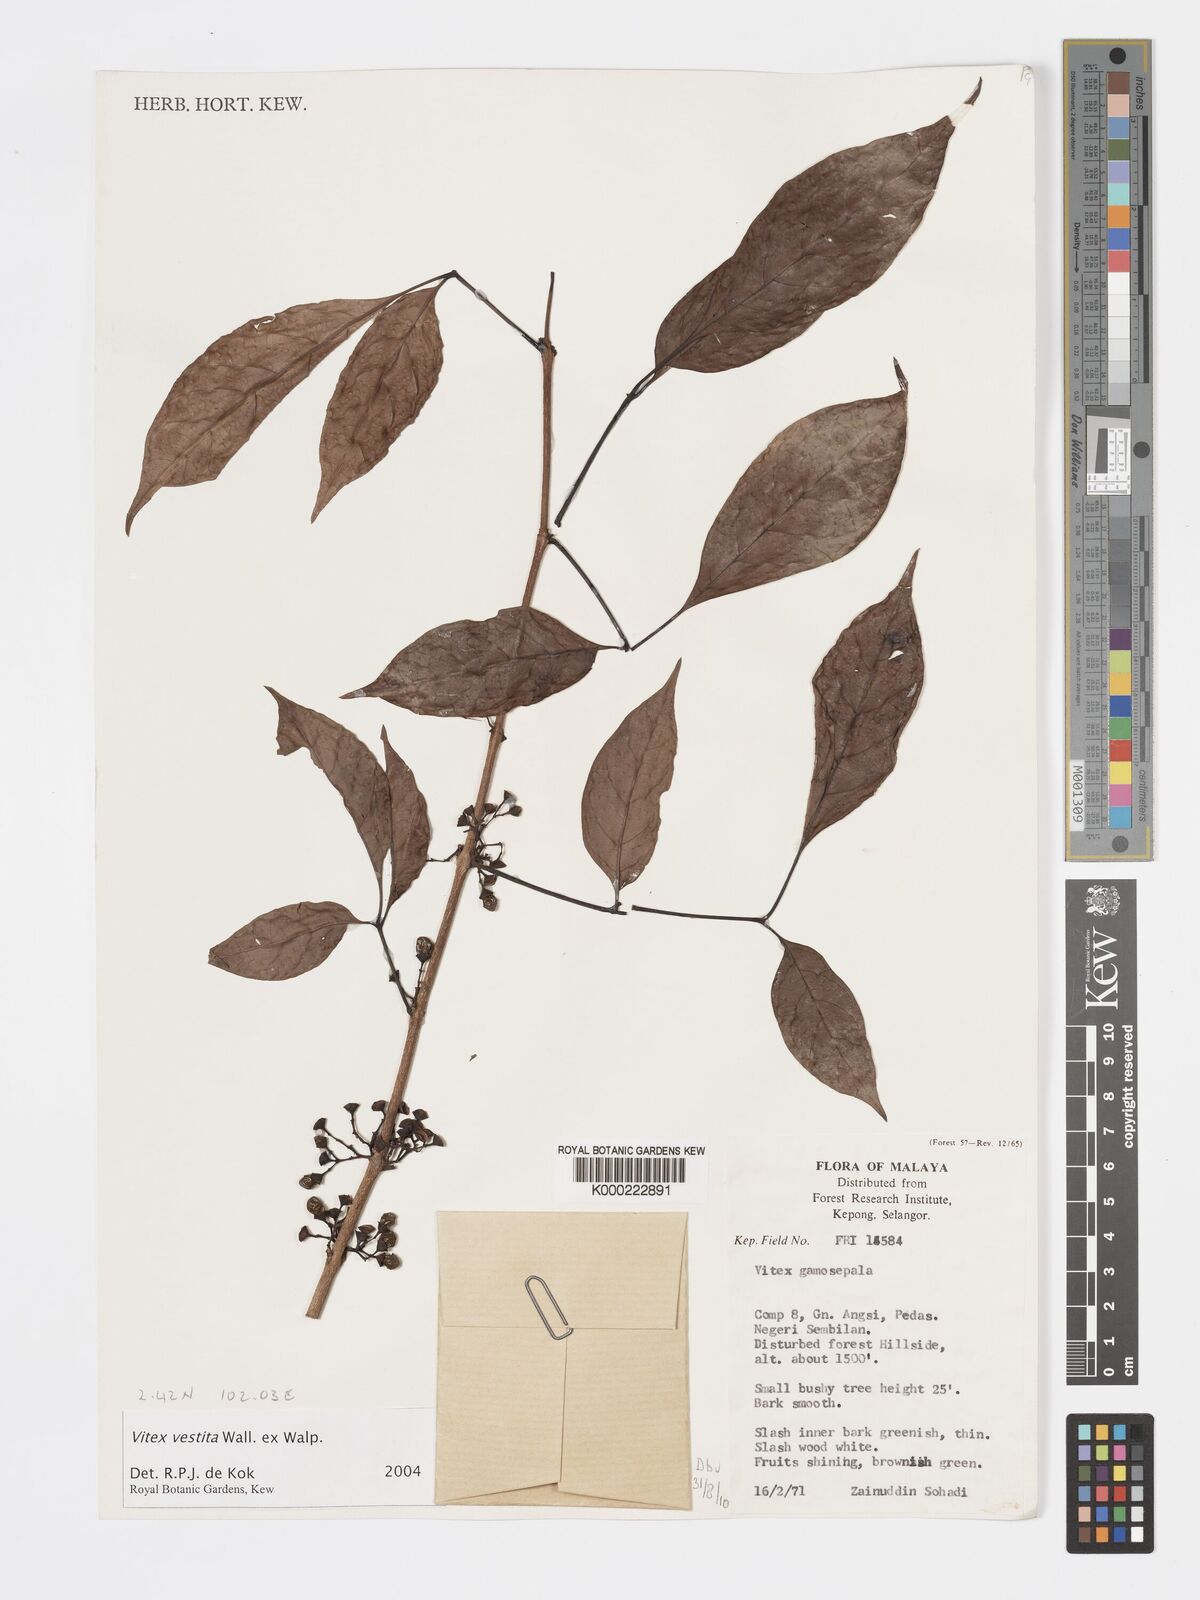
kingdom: Plantae
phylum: Tracheophyta
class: Magnoliopsida
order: Lamiales
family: Lamiaceae
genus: Vitex
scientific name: Vitex vestita
